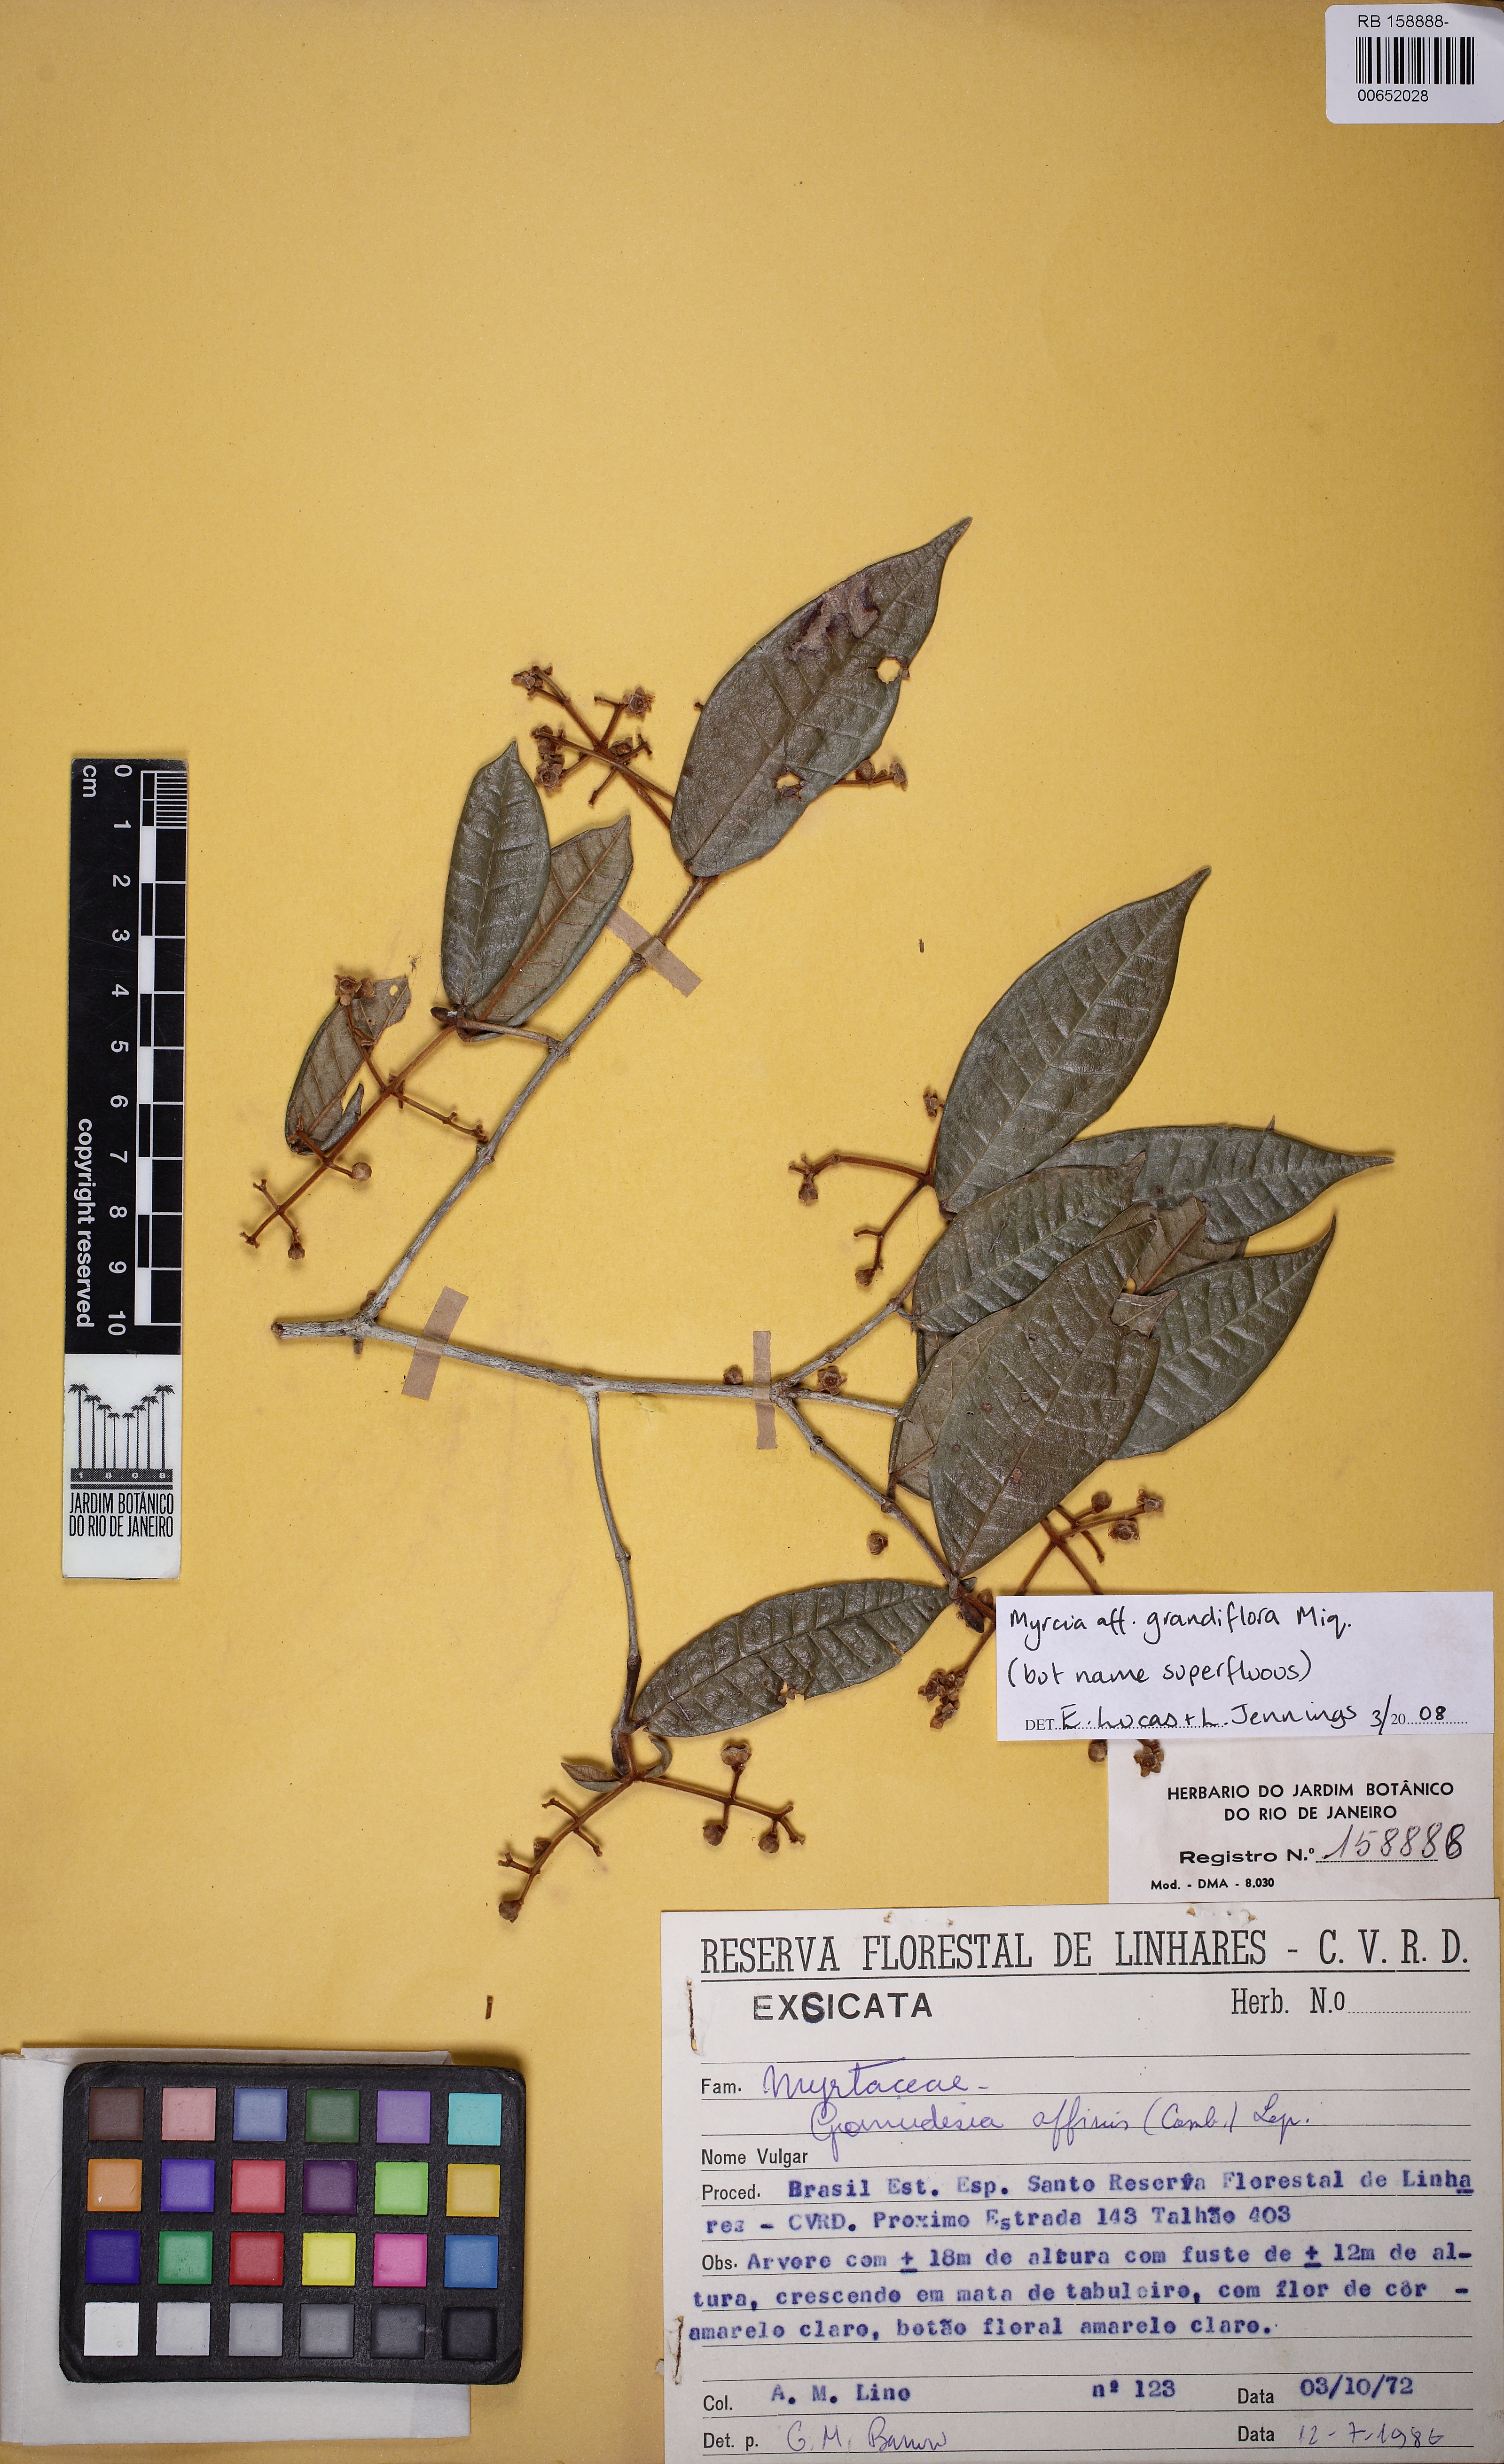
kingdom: Plantae
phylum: Tracheophyta
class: Magnoliopsida
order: Myrtales
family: Myrtaceae
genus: Myrcia
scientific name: Myrcia isaiana
